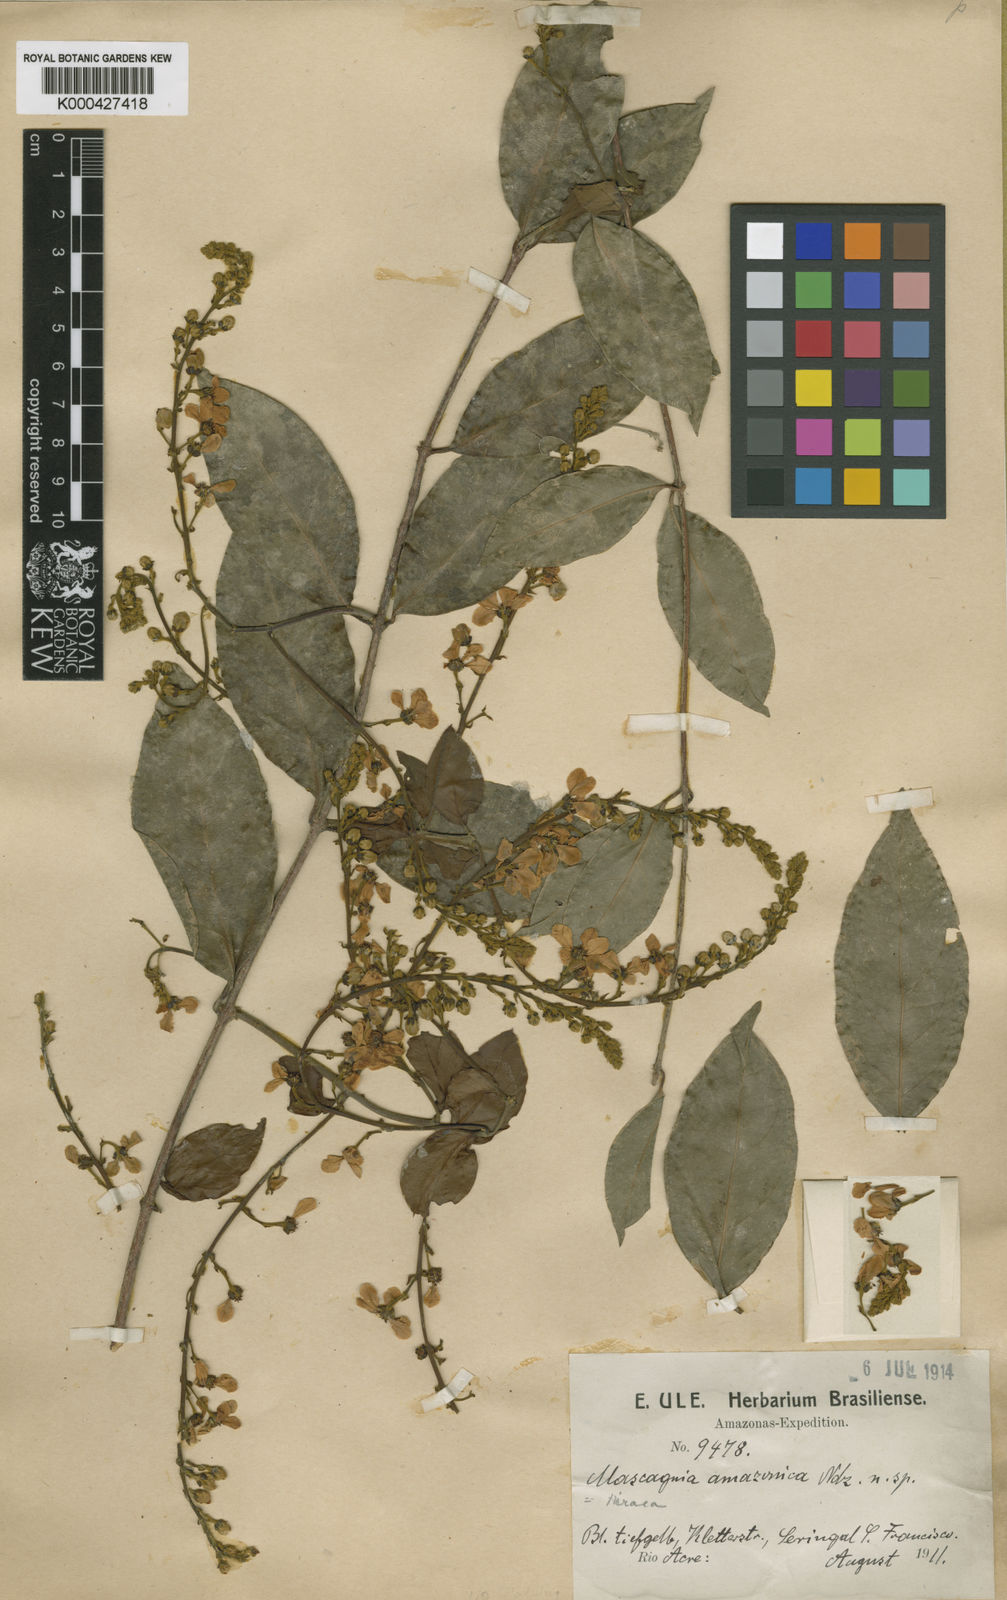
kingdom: Plantae
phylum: Tracheophyta
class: Magnoliopsida
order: Malpighiales
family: Malpighiaceae
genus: Amorimia
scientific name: Amorimia amazonica
